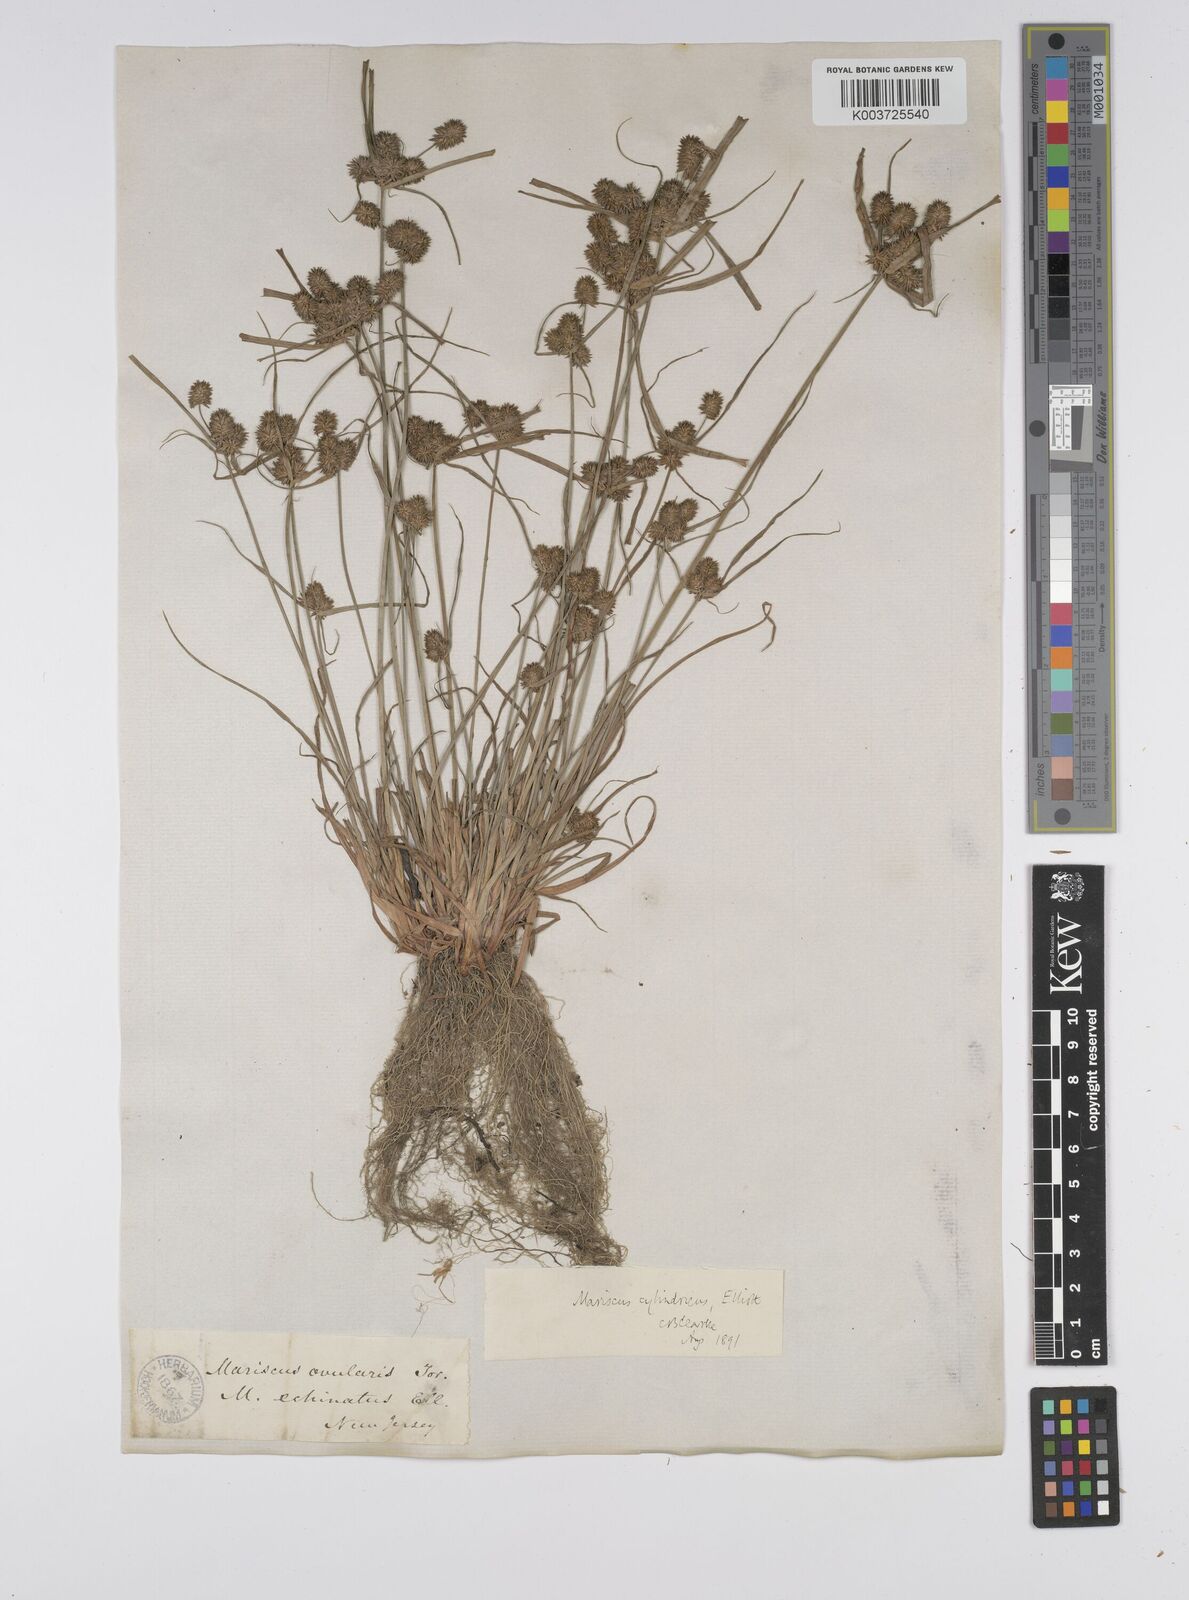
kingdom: Plantae
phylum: Tracheophyta
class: Liliopsida
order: Poales
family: Cyperaceae
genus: Cyperus
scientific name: Cyperus retrorsus
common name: Pinebarren flat sedge
